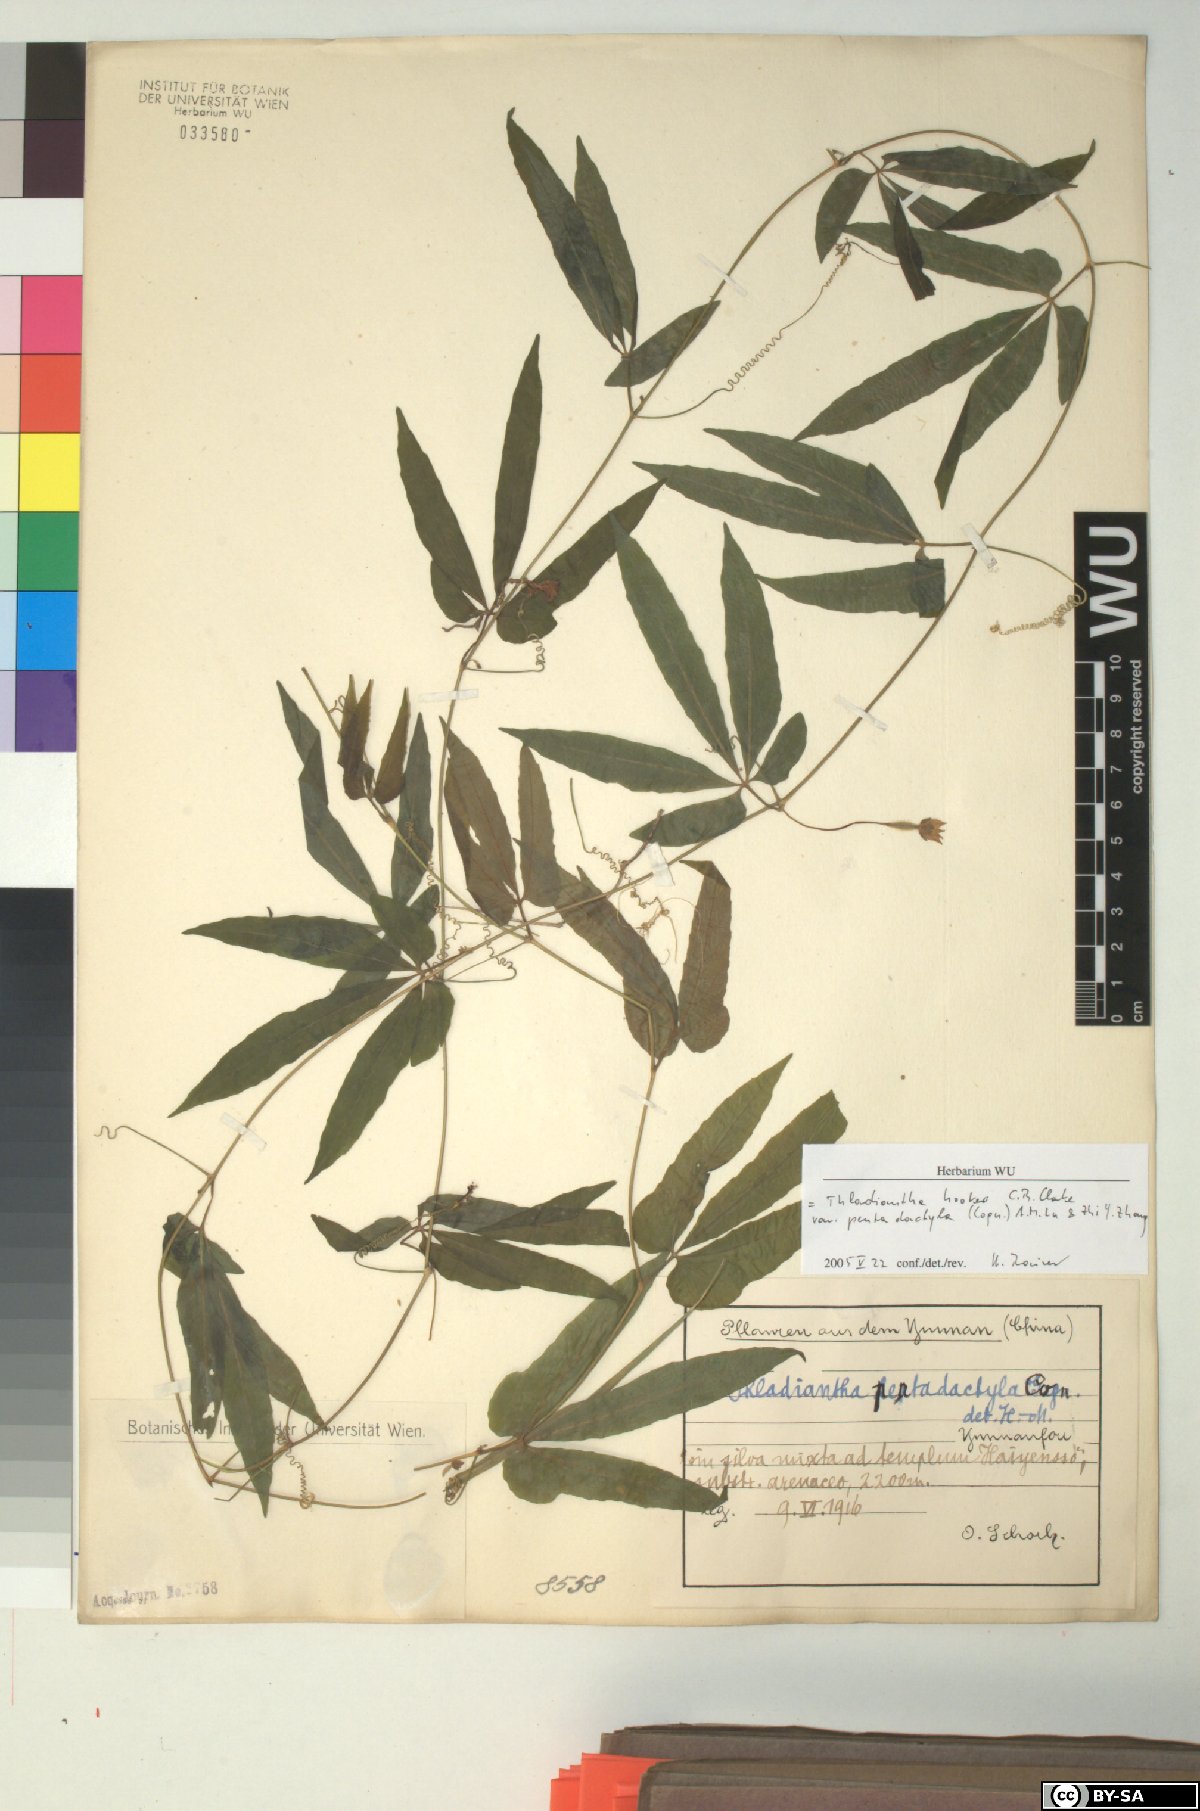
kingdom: Plantae
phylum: Tracheophyta
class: Magnoliopsida
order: Cucurbitales
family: Cucurbitaceae
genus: Thladiantha
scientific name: Thladiantha hookeri
